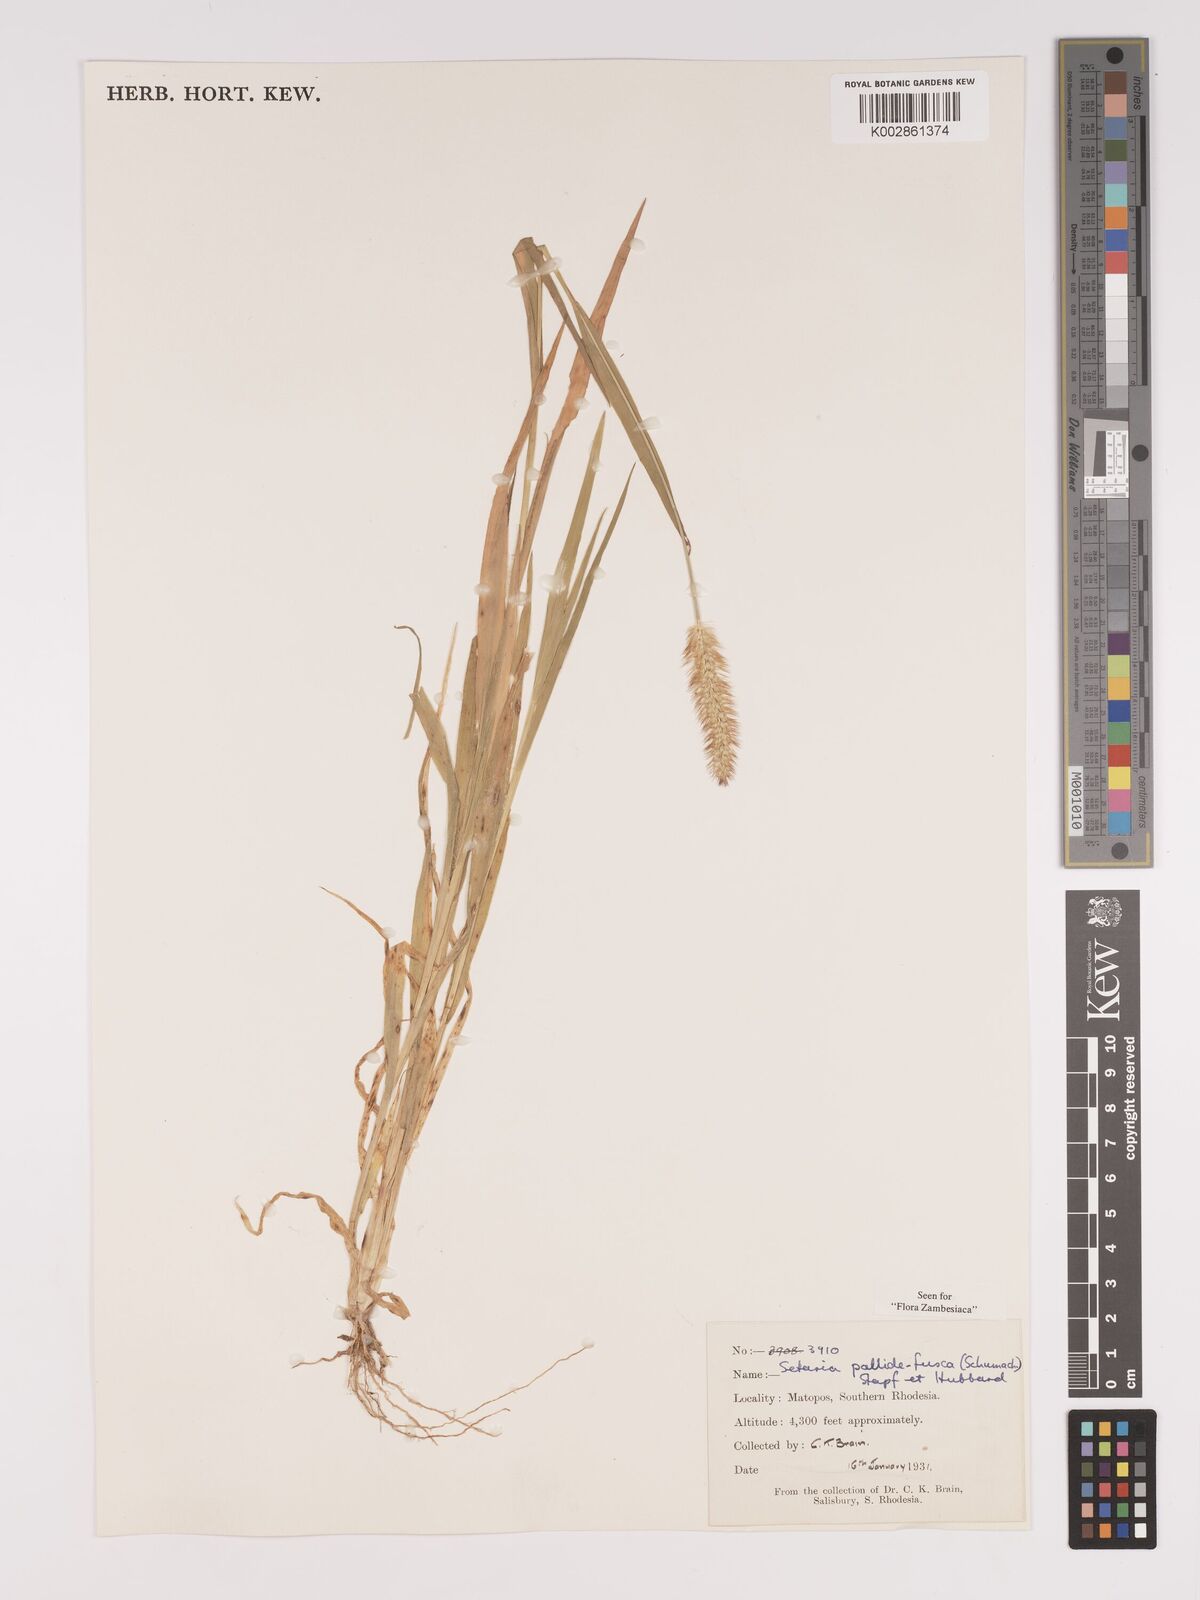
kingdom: Plantae
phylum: Tracheophyta
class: Liliopsida
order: Poales
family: Poaceae
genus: Setaria
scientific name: Setaria pumila
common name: Yellow bristle-grass
